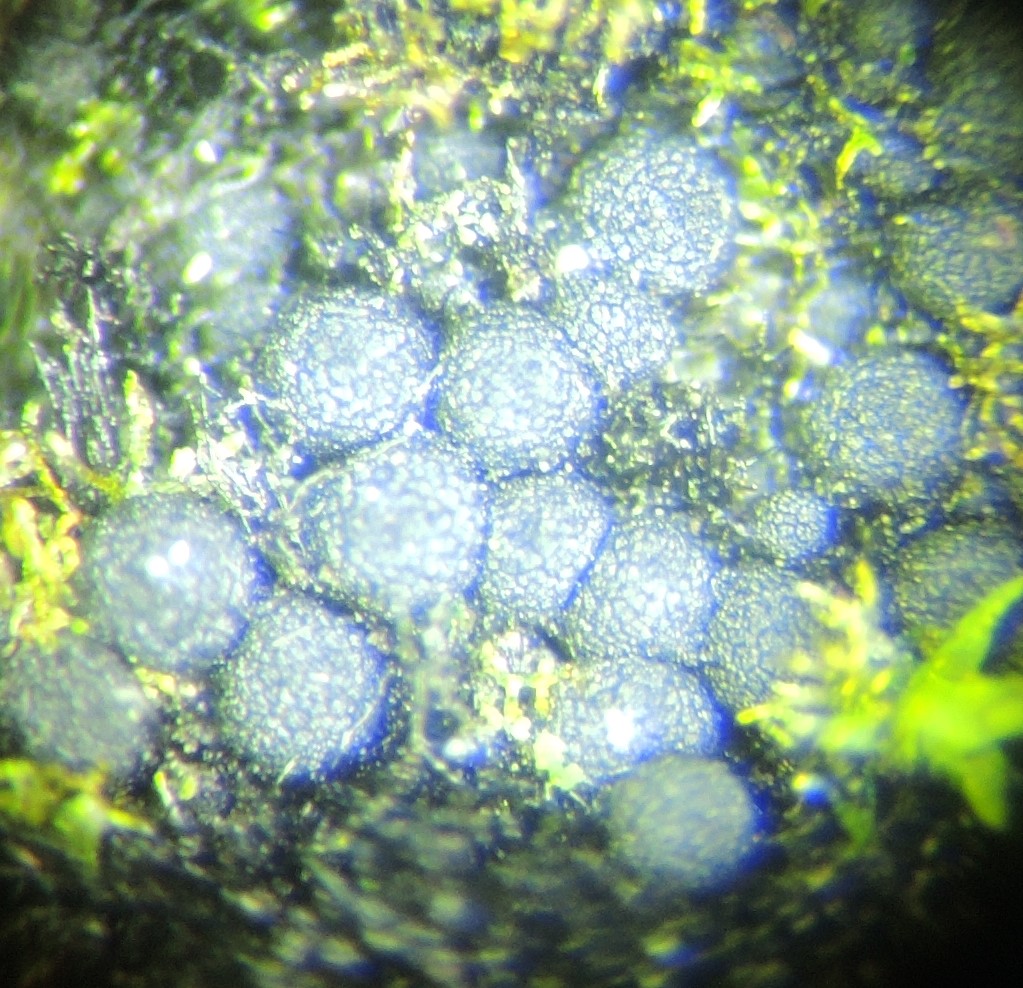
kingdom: Fungi
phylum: Ascomycota
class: Sordariomycetes
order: Coronophorales
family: Chaetosphaerellaceae
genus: Chaetosphaerella
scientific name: Chaetosphaerella phaeostroma
